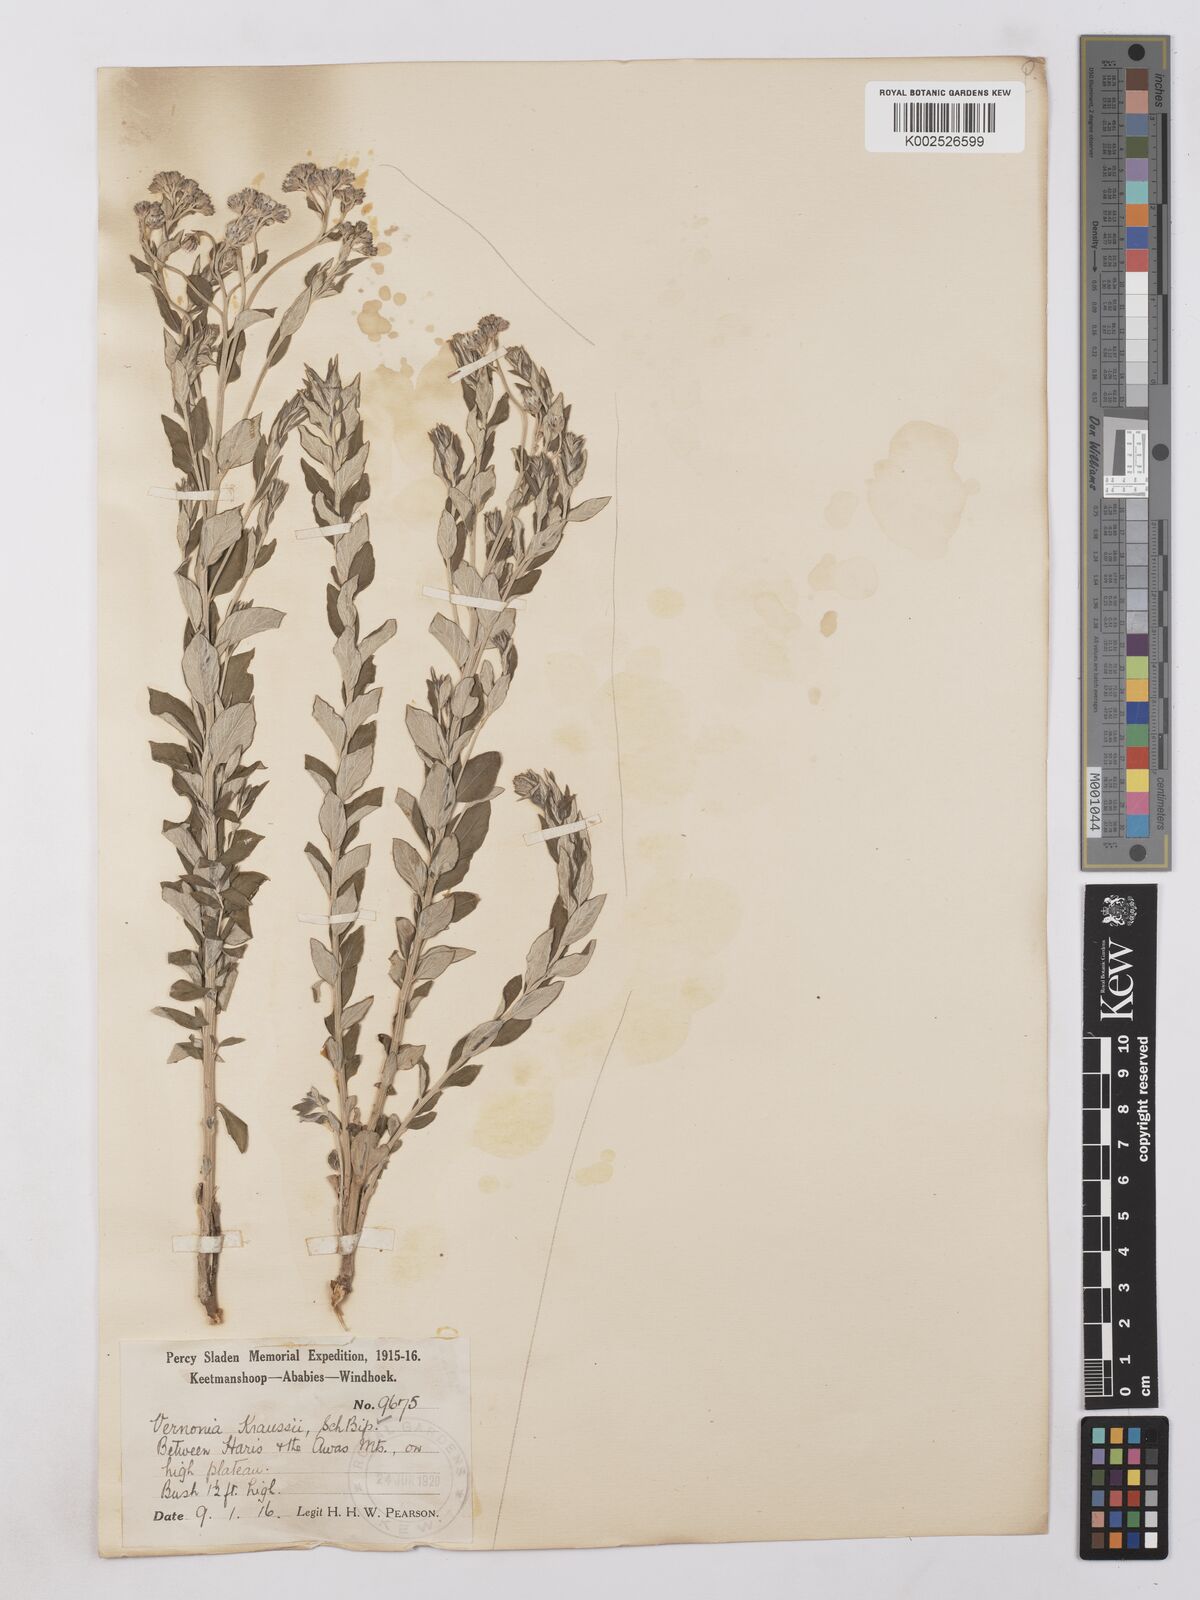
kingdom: Plantae
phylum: Tracheophyta
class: Magnoliopsida
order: Asterales
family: Asteraceae
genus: Lepidaploa
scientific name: Lepidaploa aurea
